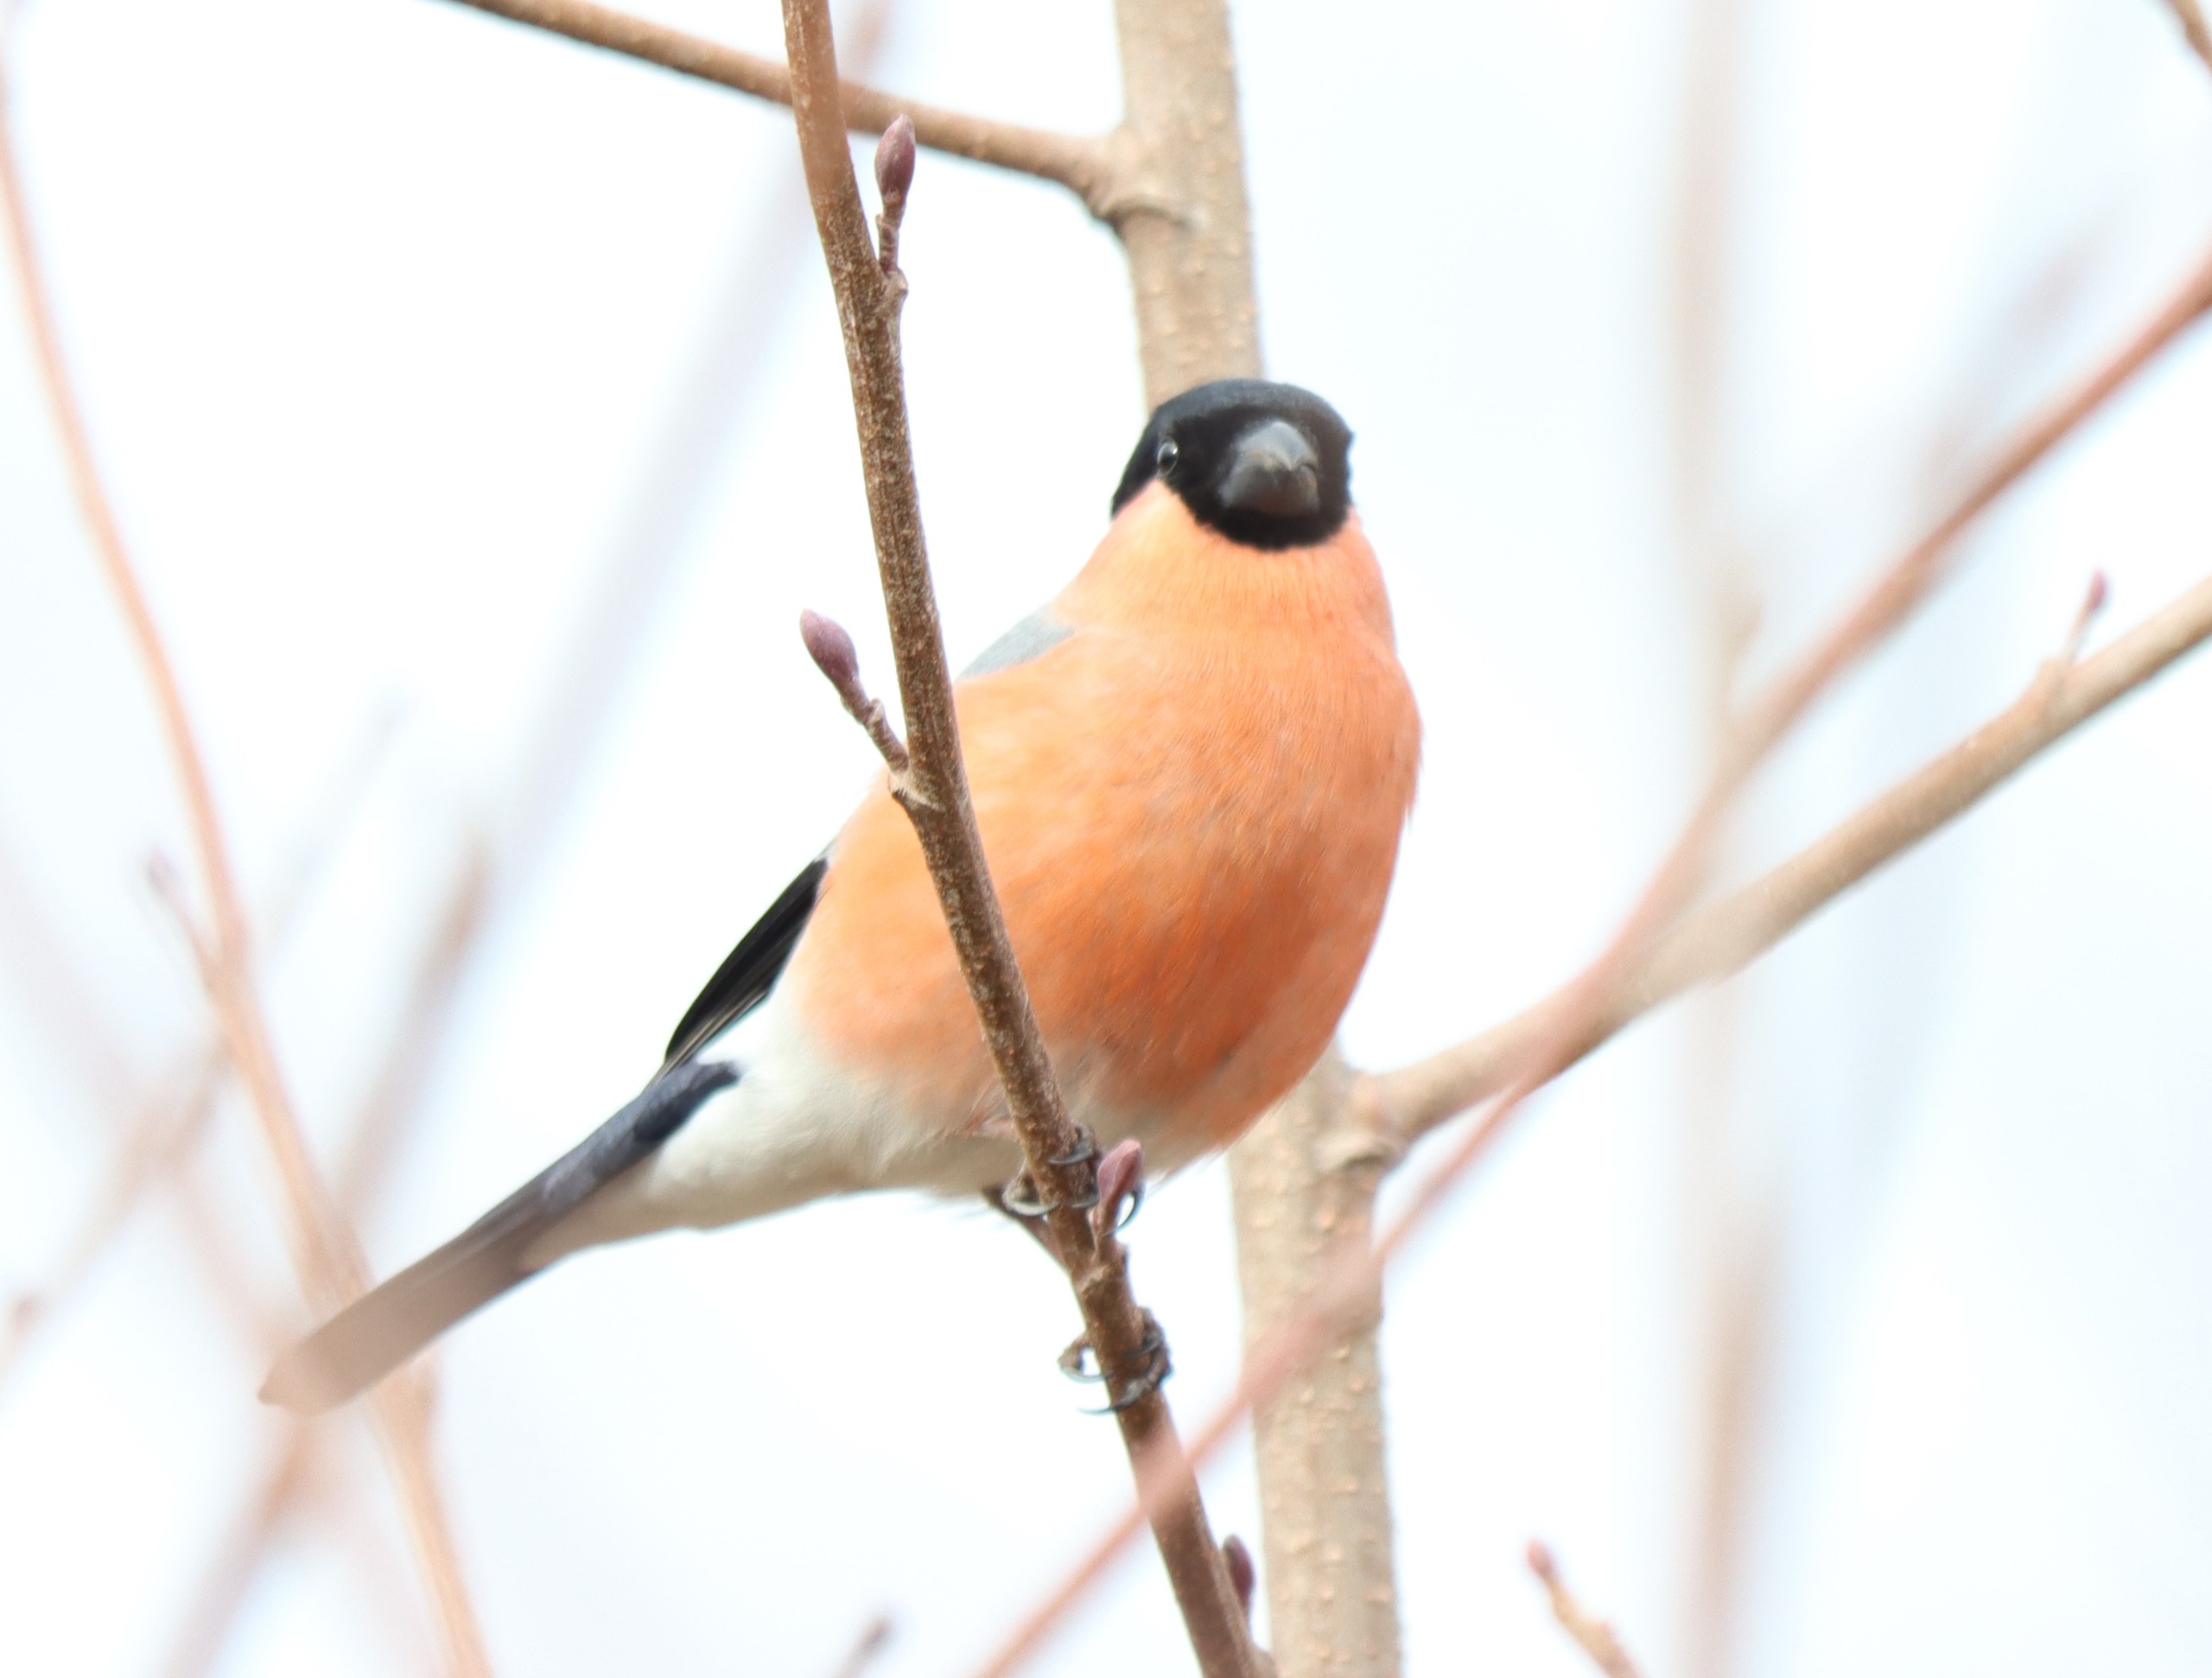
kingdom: Animalia
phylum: Chordata
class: Aves
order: Passeriformes
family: Fringillidae
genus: Pyrrhula
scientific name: Pyrrhula pyrrhula
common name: Dompap
